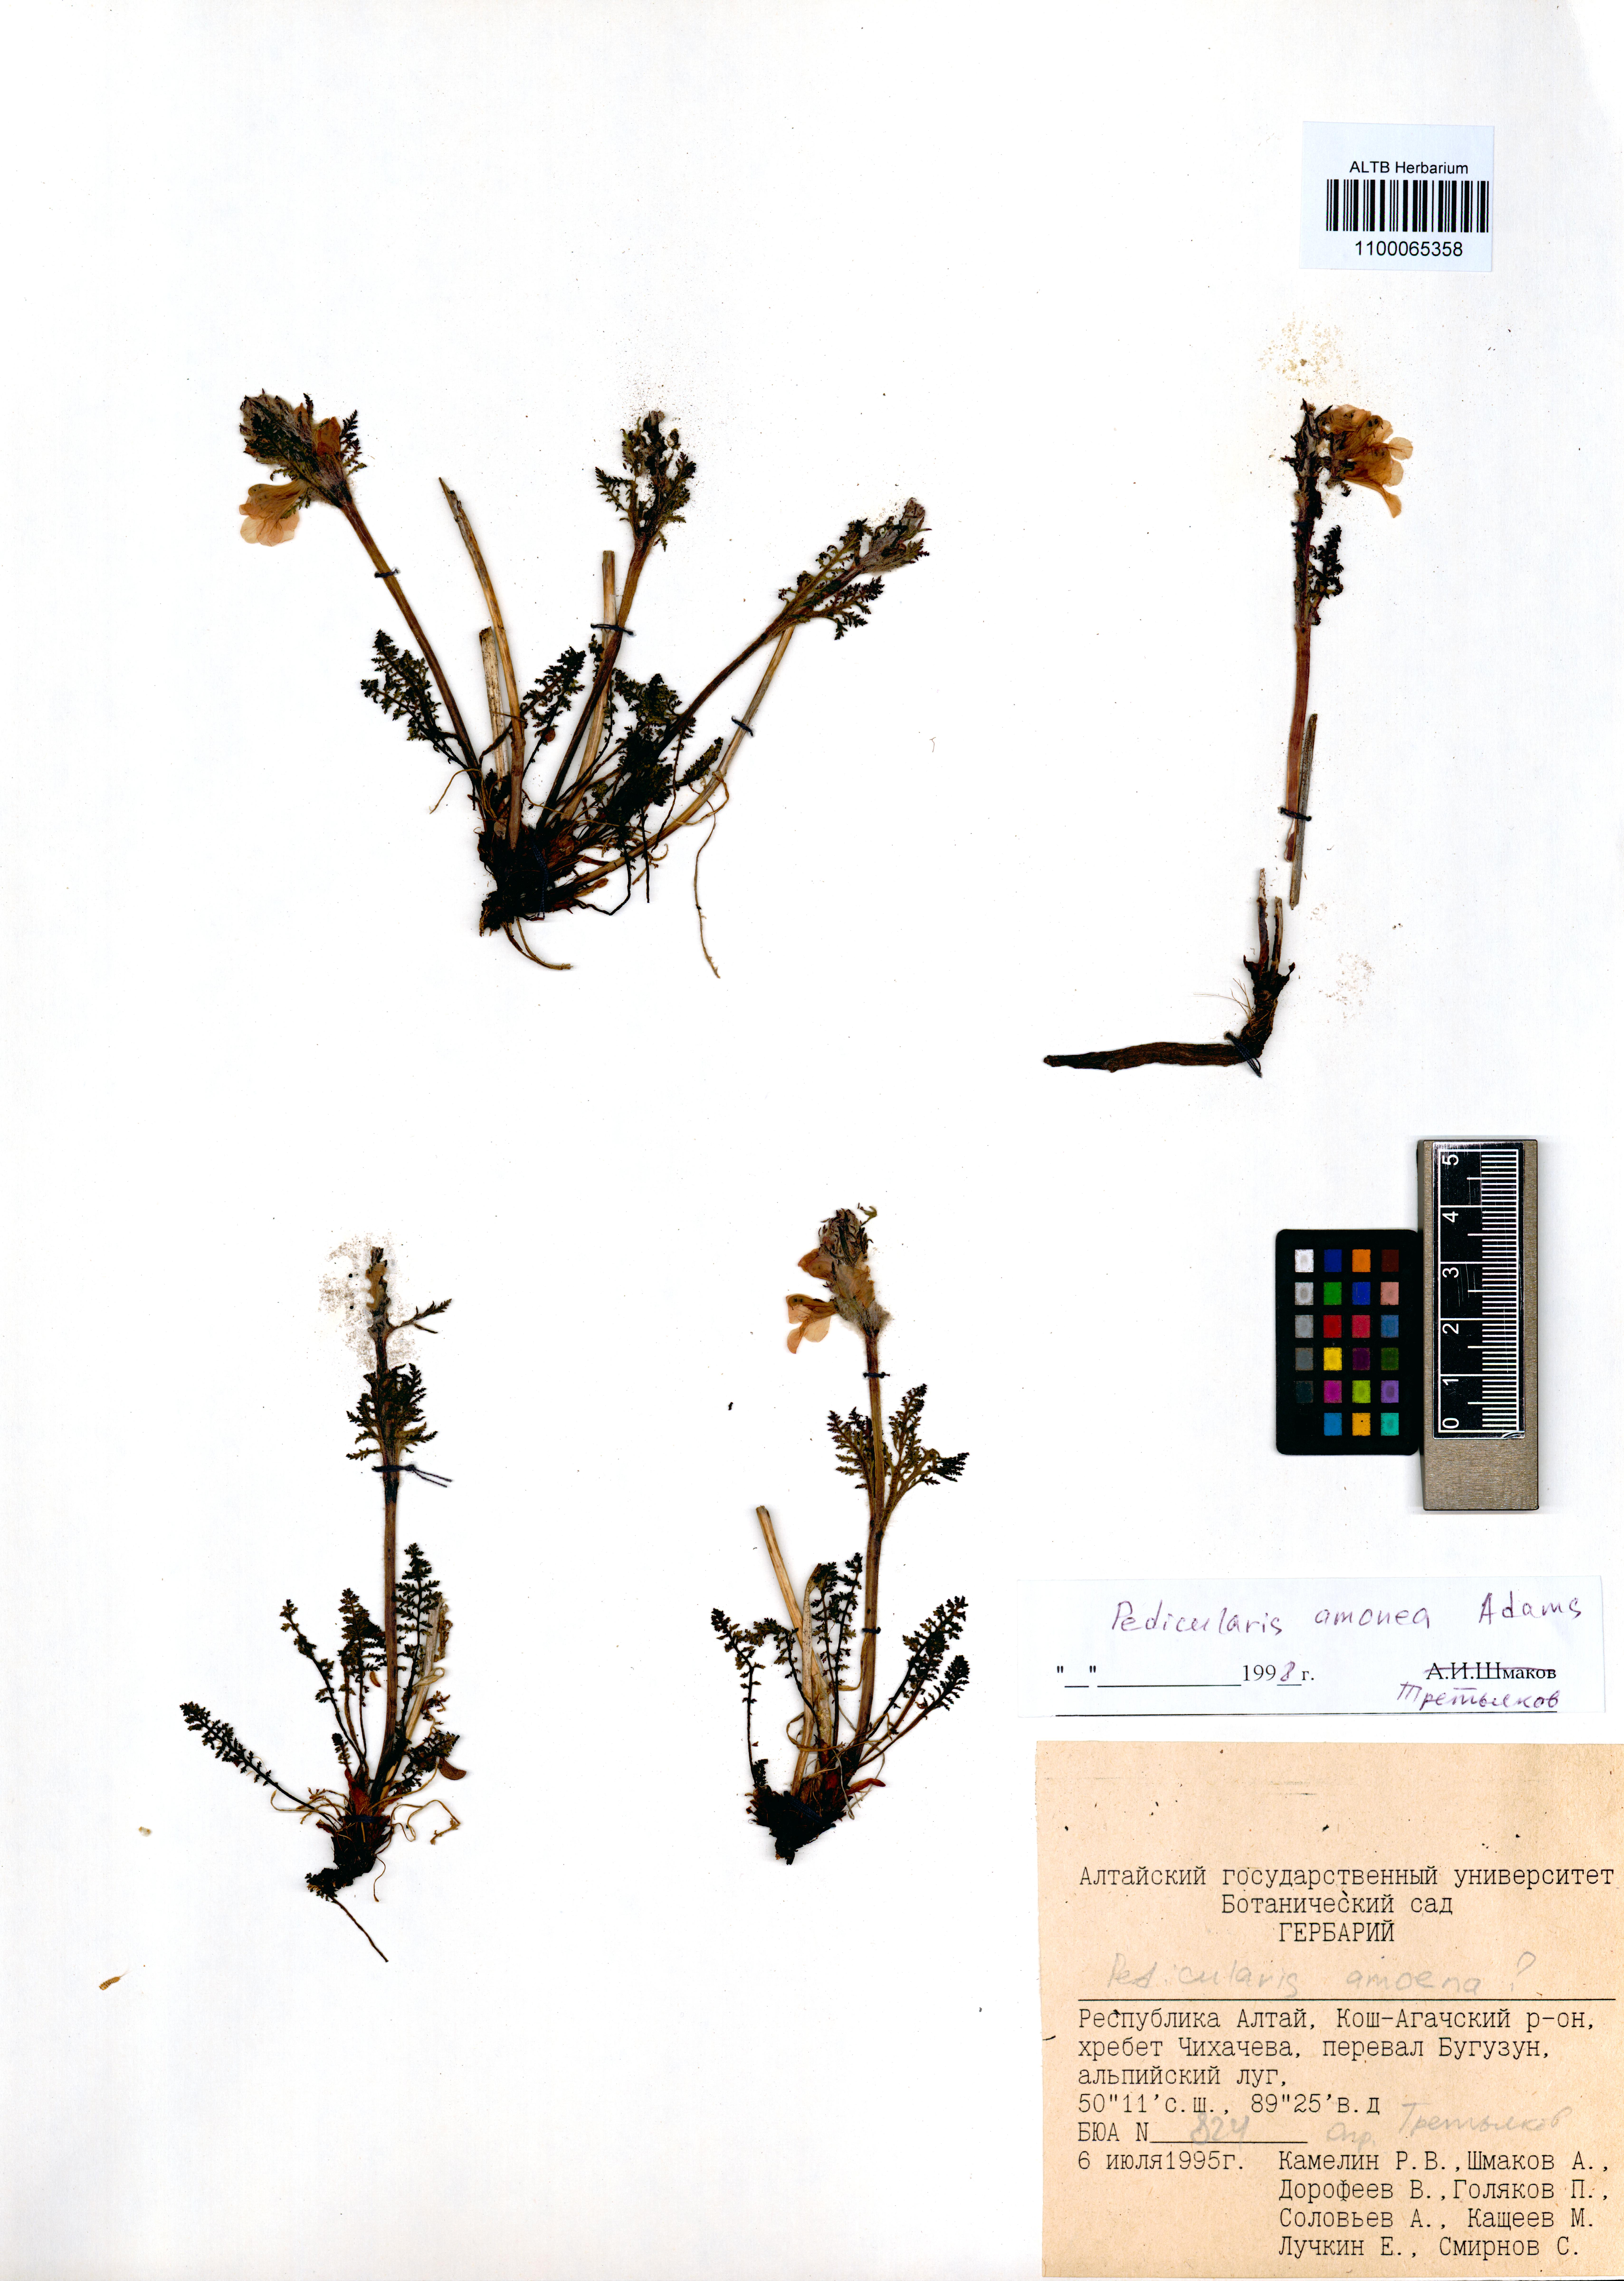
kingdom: Plantae
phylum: Tracheophyta
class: Magnoliopsida
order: Lamiales
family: Orobanchaceae
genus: Pedicularis
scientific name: Pedicularis amoena
